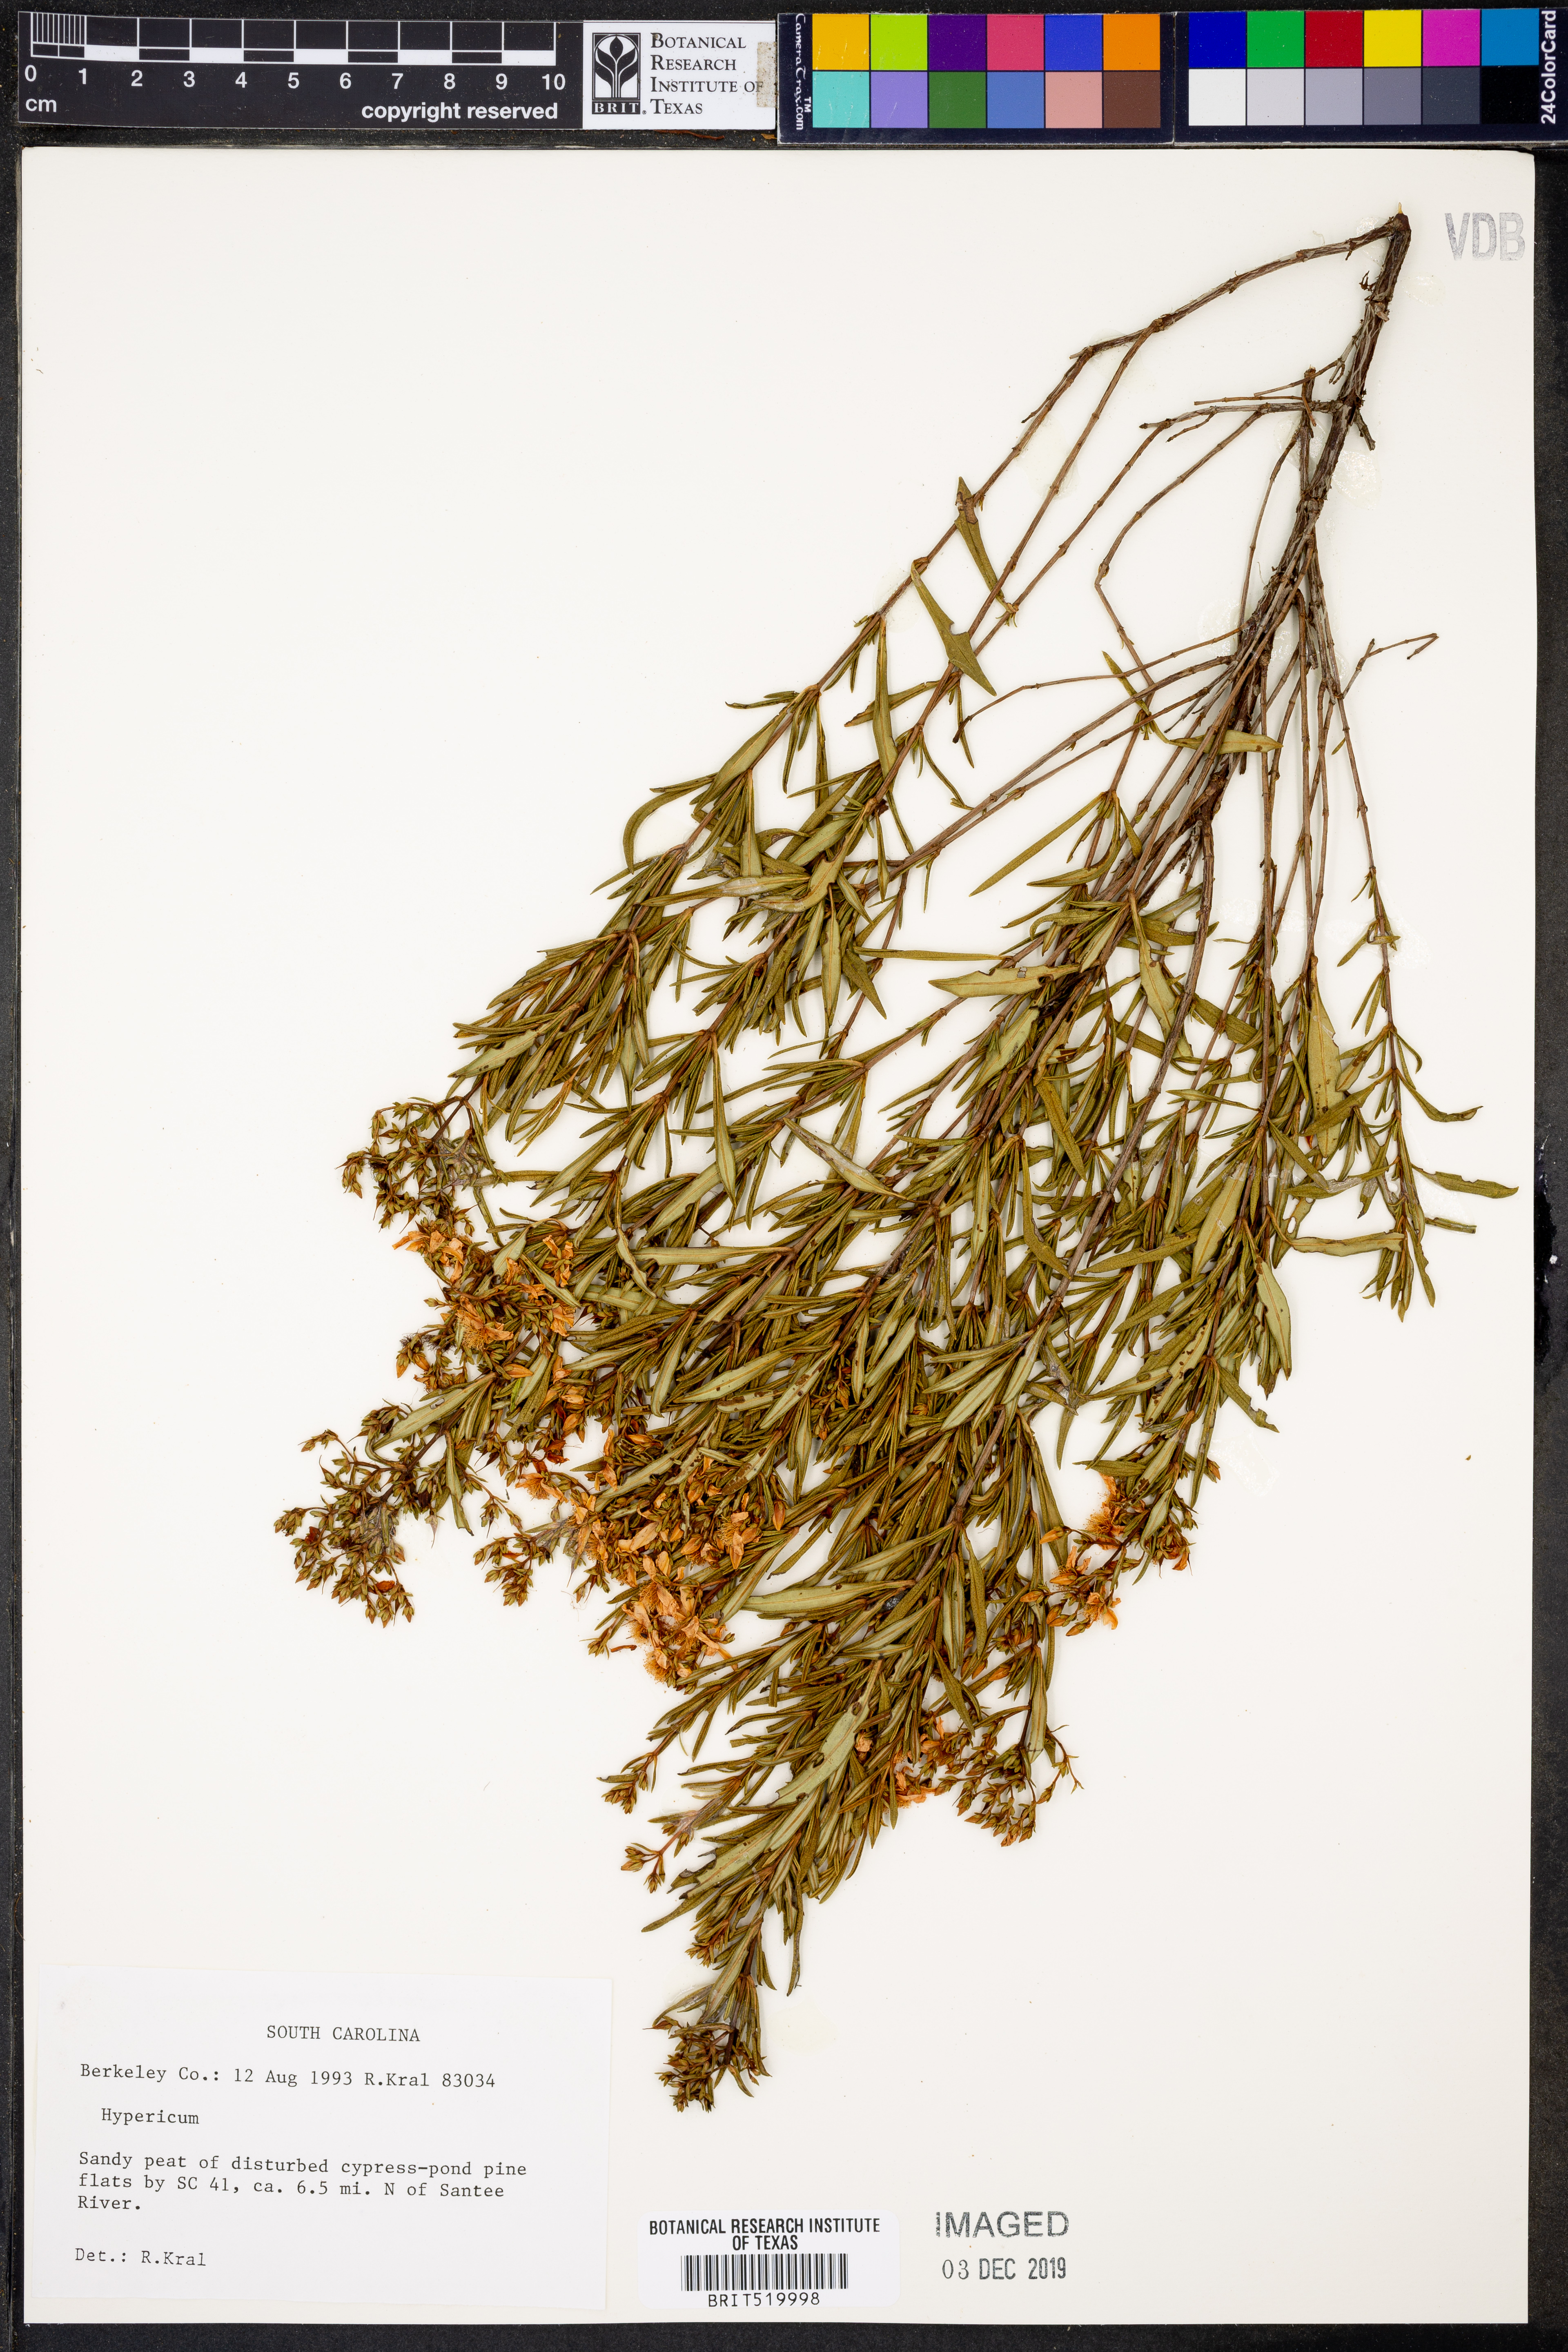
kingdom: Plantae
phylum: Tracheophyta
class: Magnoliopsida
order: Malpighiales
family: Hypericaceae
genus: Hypericum
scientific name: Hypericum
